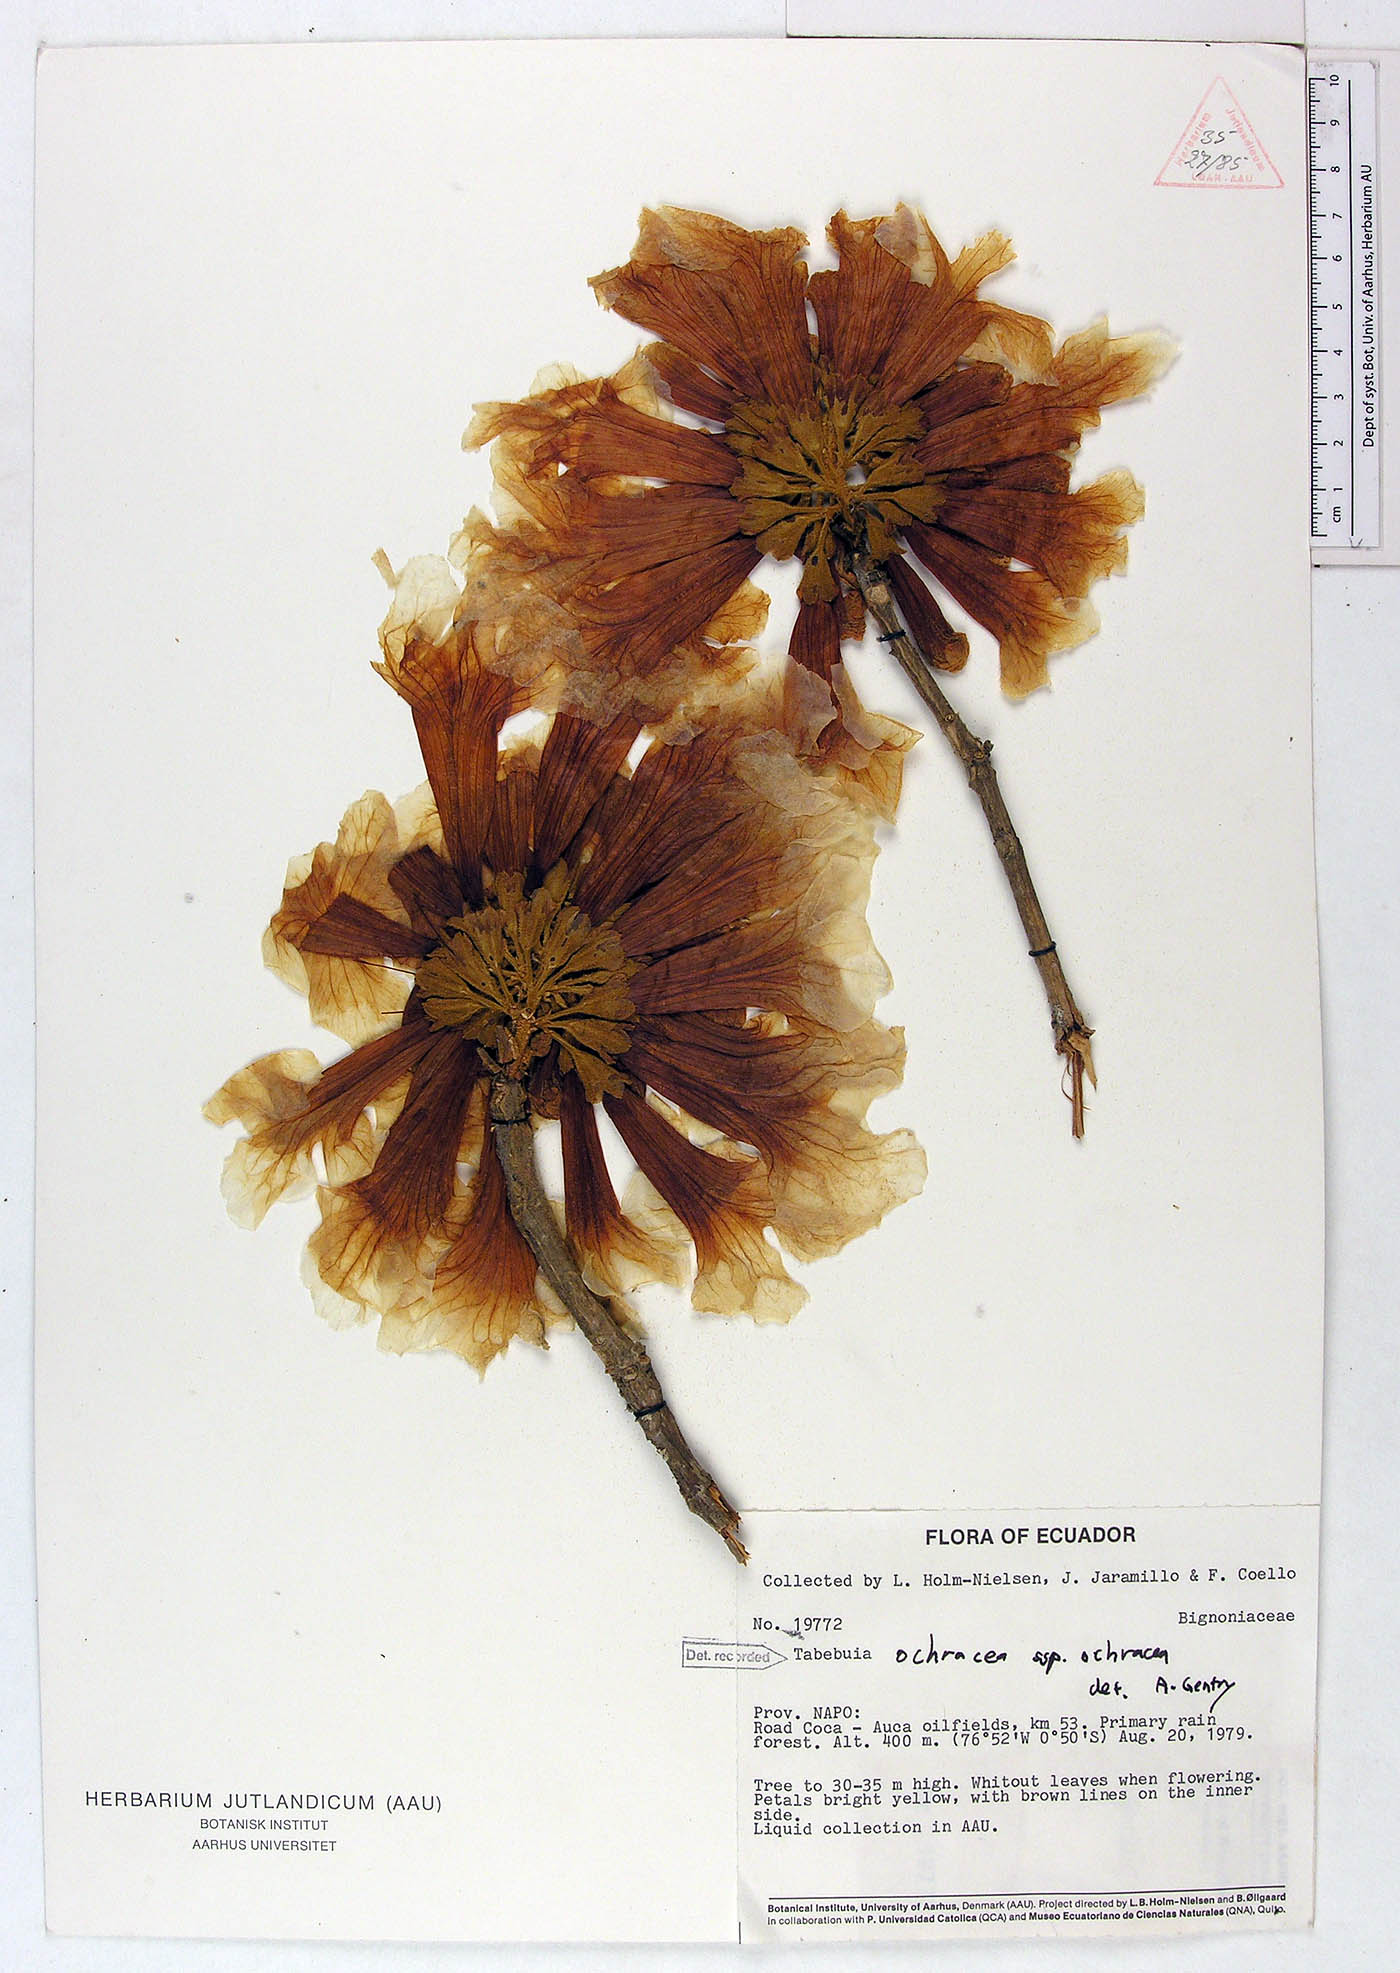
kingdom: Plantae
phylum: Tracheophyta
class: Magnoliopsida
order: Lamiales
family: Bignoniaceae
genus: Handroanthus
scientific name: Handroanthus ochraceus
